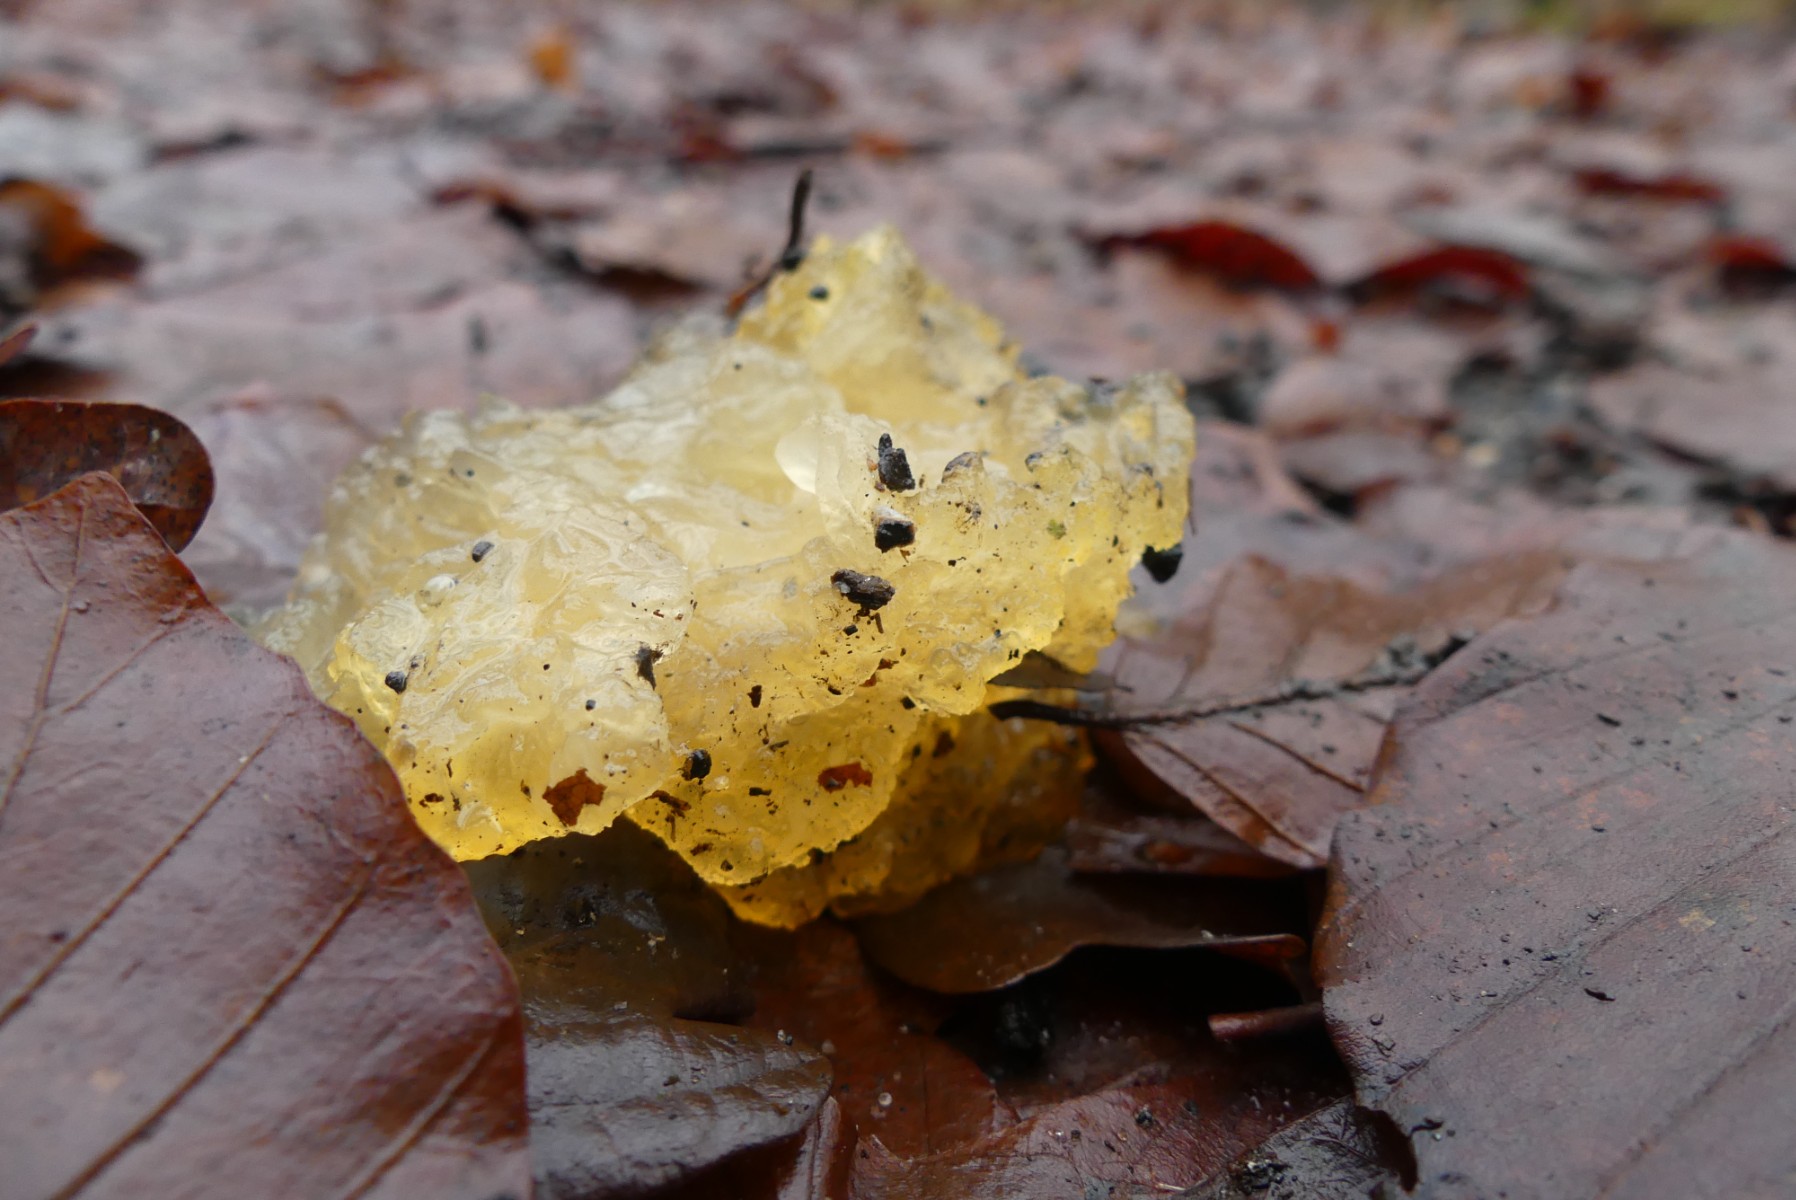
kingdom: Fungi
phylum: Basidiomycota
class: Tremellomycetes
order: Tremellales
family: Tremellaceae
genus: Tremella
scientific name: Tremella mesenterica
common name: gul bævresvamp
